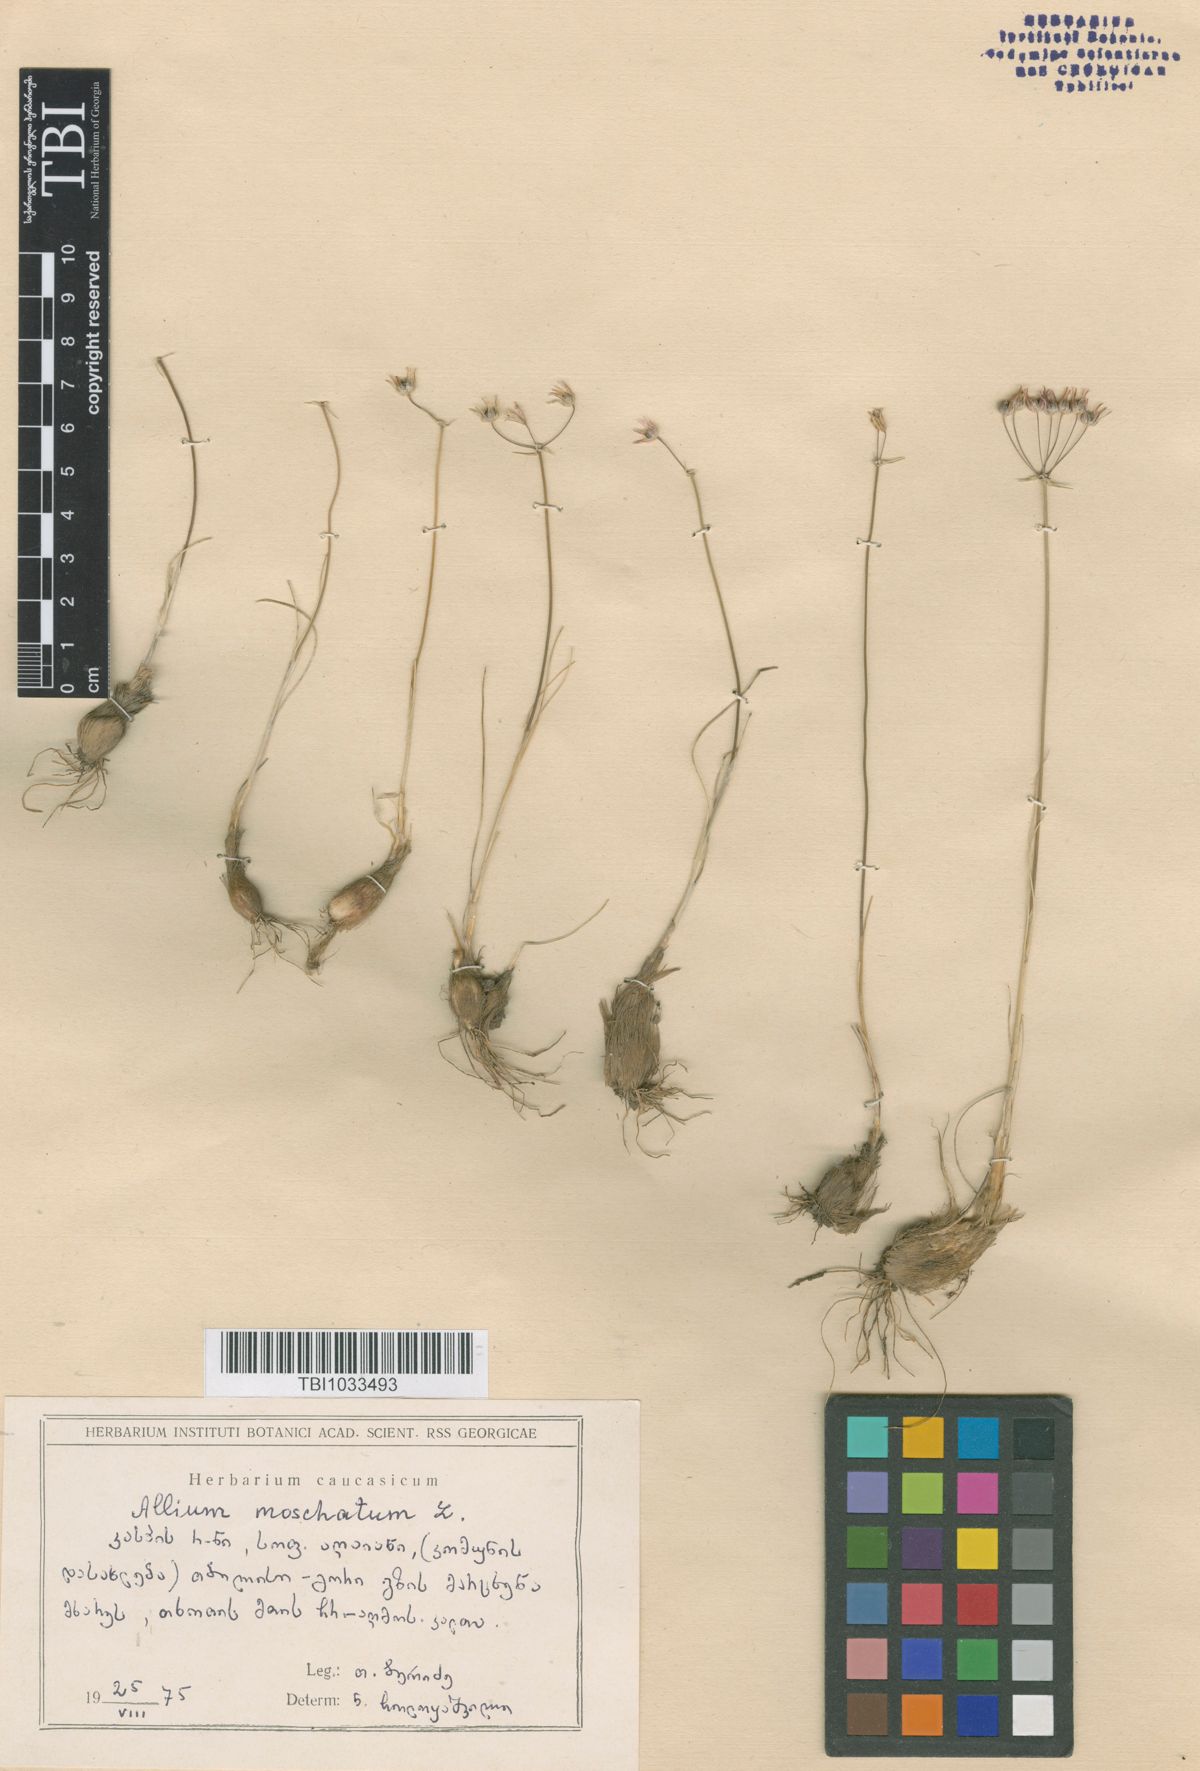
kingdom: Plantae
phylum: Tracheophyta
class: Liliopsida
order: Asparagales
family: Amaryllidaceae
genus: Allium
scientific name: Allium moschatum
